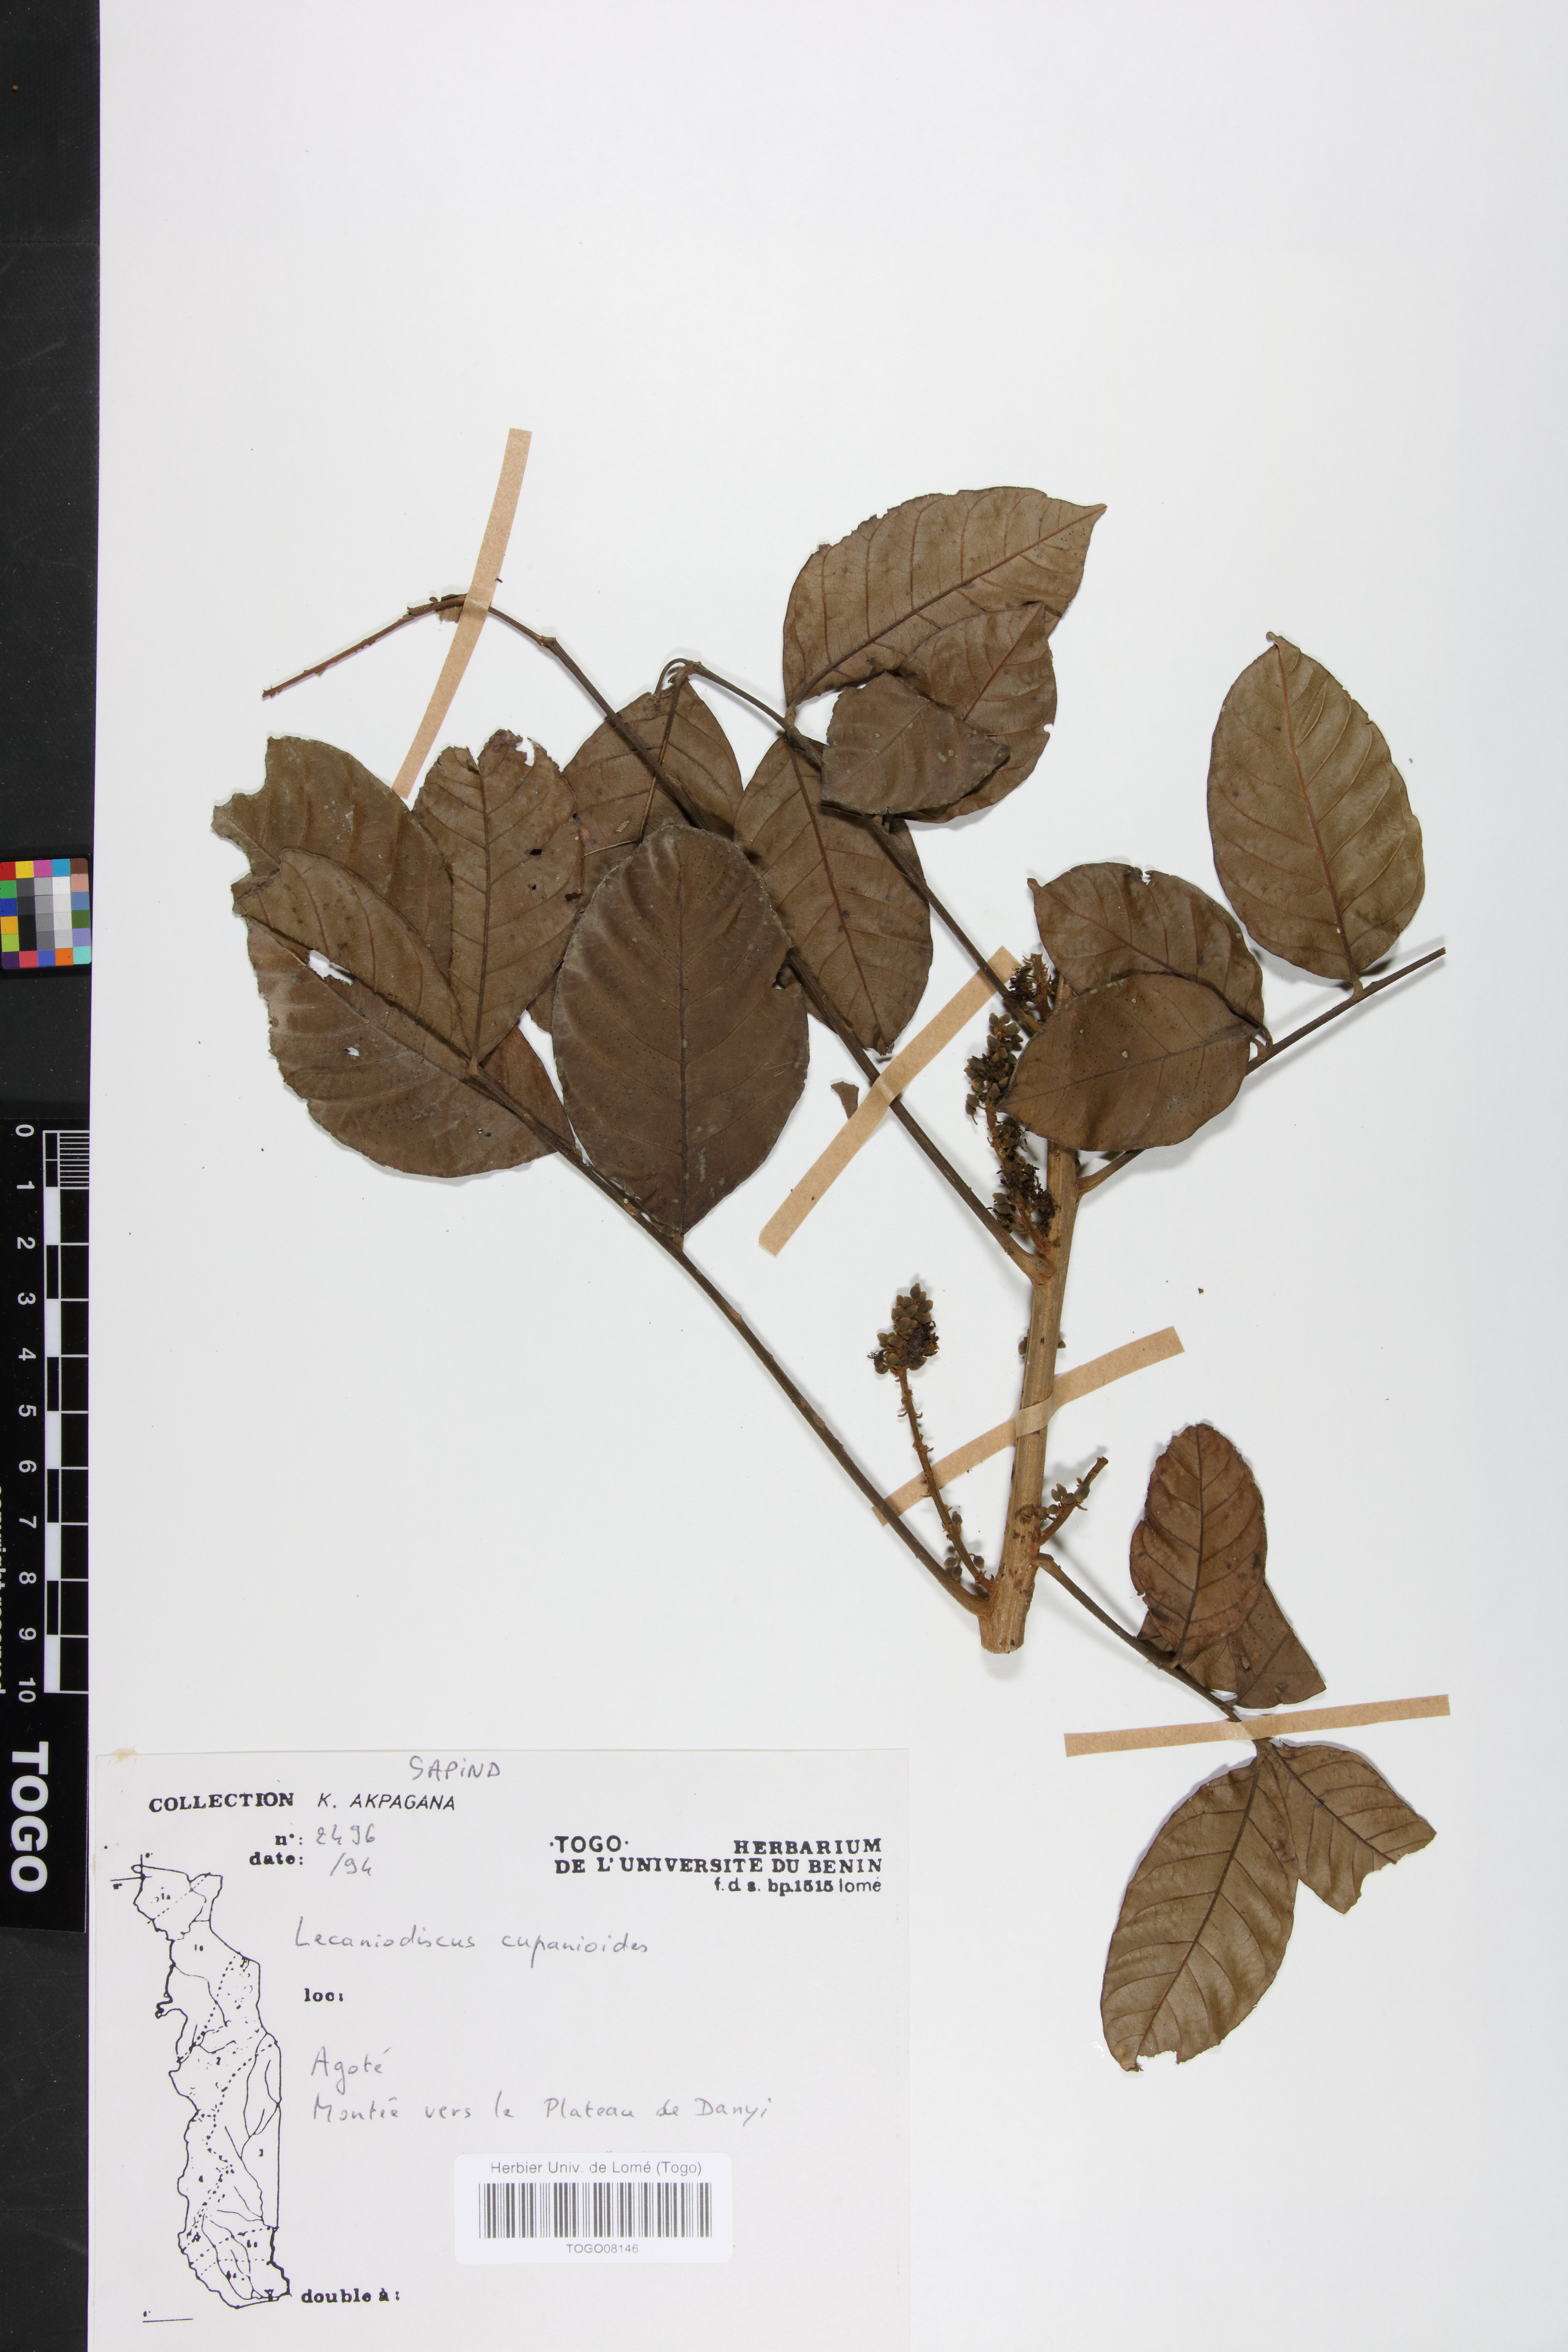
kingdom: Plantae
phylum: Tracheophyta
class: Magnoliopsida
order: Sapindales
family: Sapindaceae
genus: Lecaniodiscus
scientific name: Lecaniodiscus cupanioides
